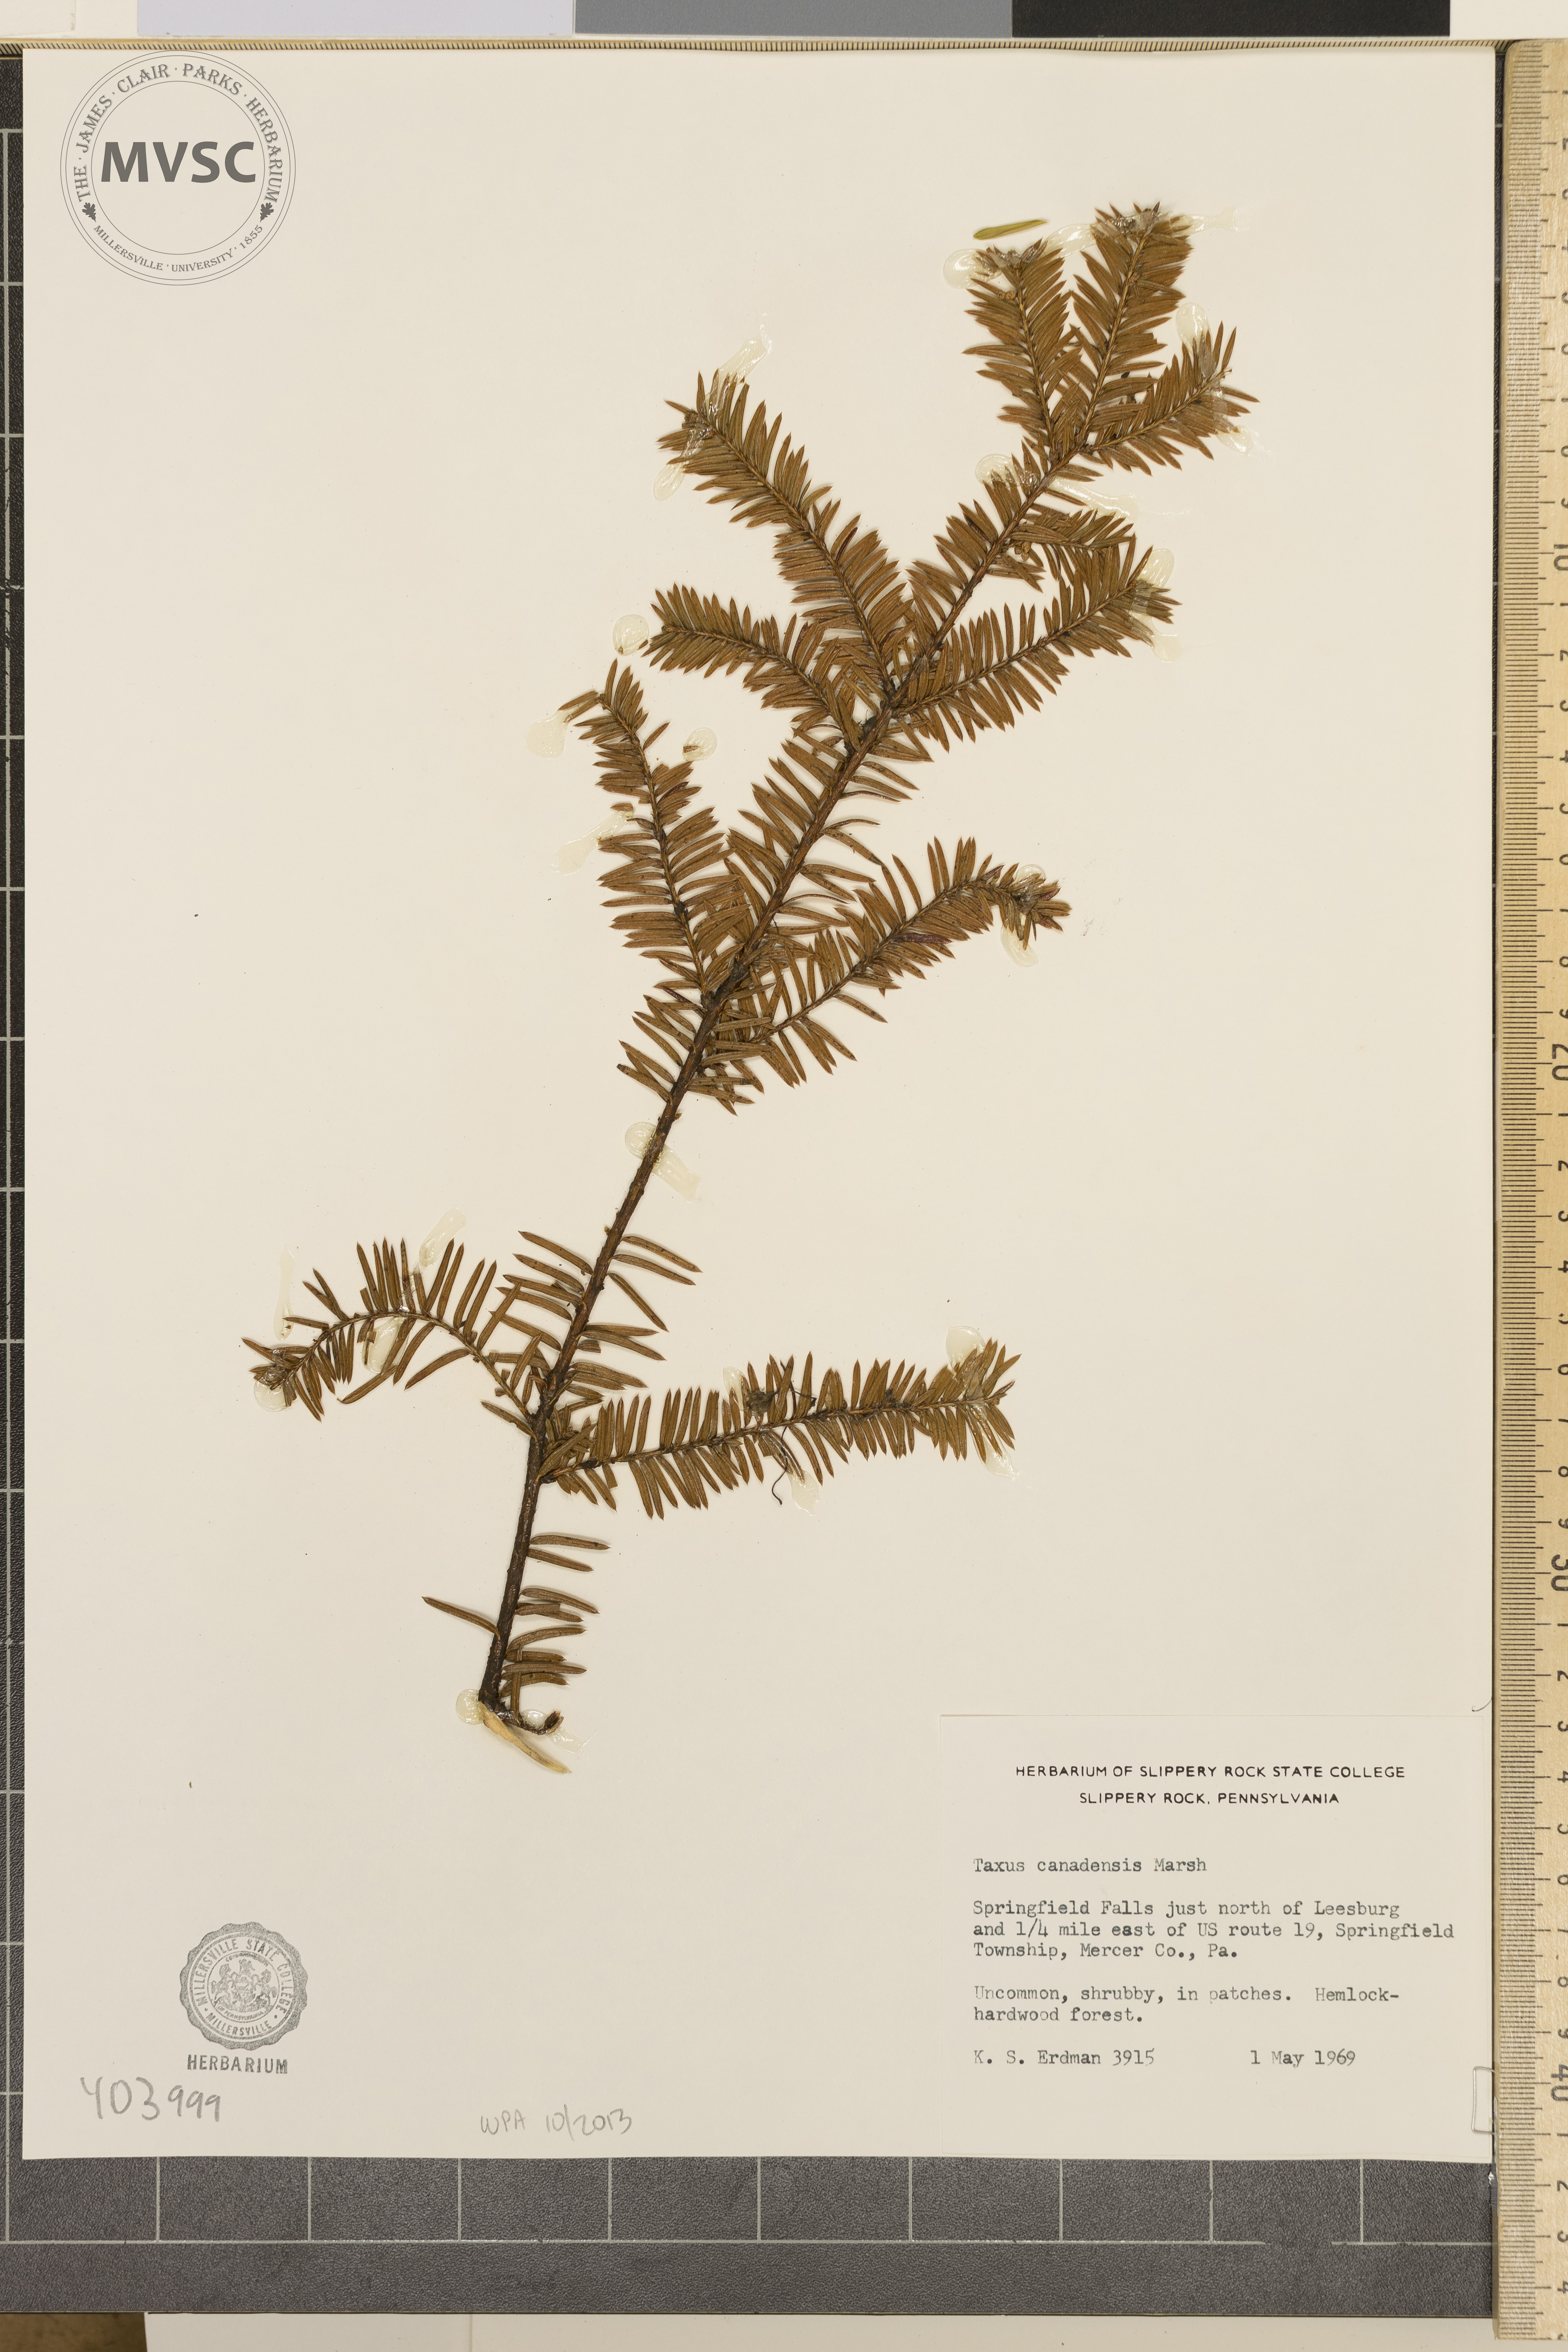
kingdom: Plantae
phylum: Tracheophyta
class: Pinopsida
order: Pinales
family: Taxaceae
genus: Taxus
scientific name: Taxus canadensis
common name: Canada Yew
